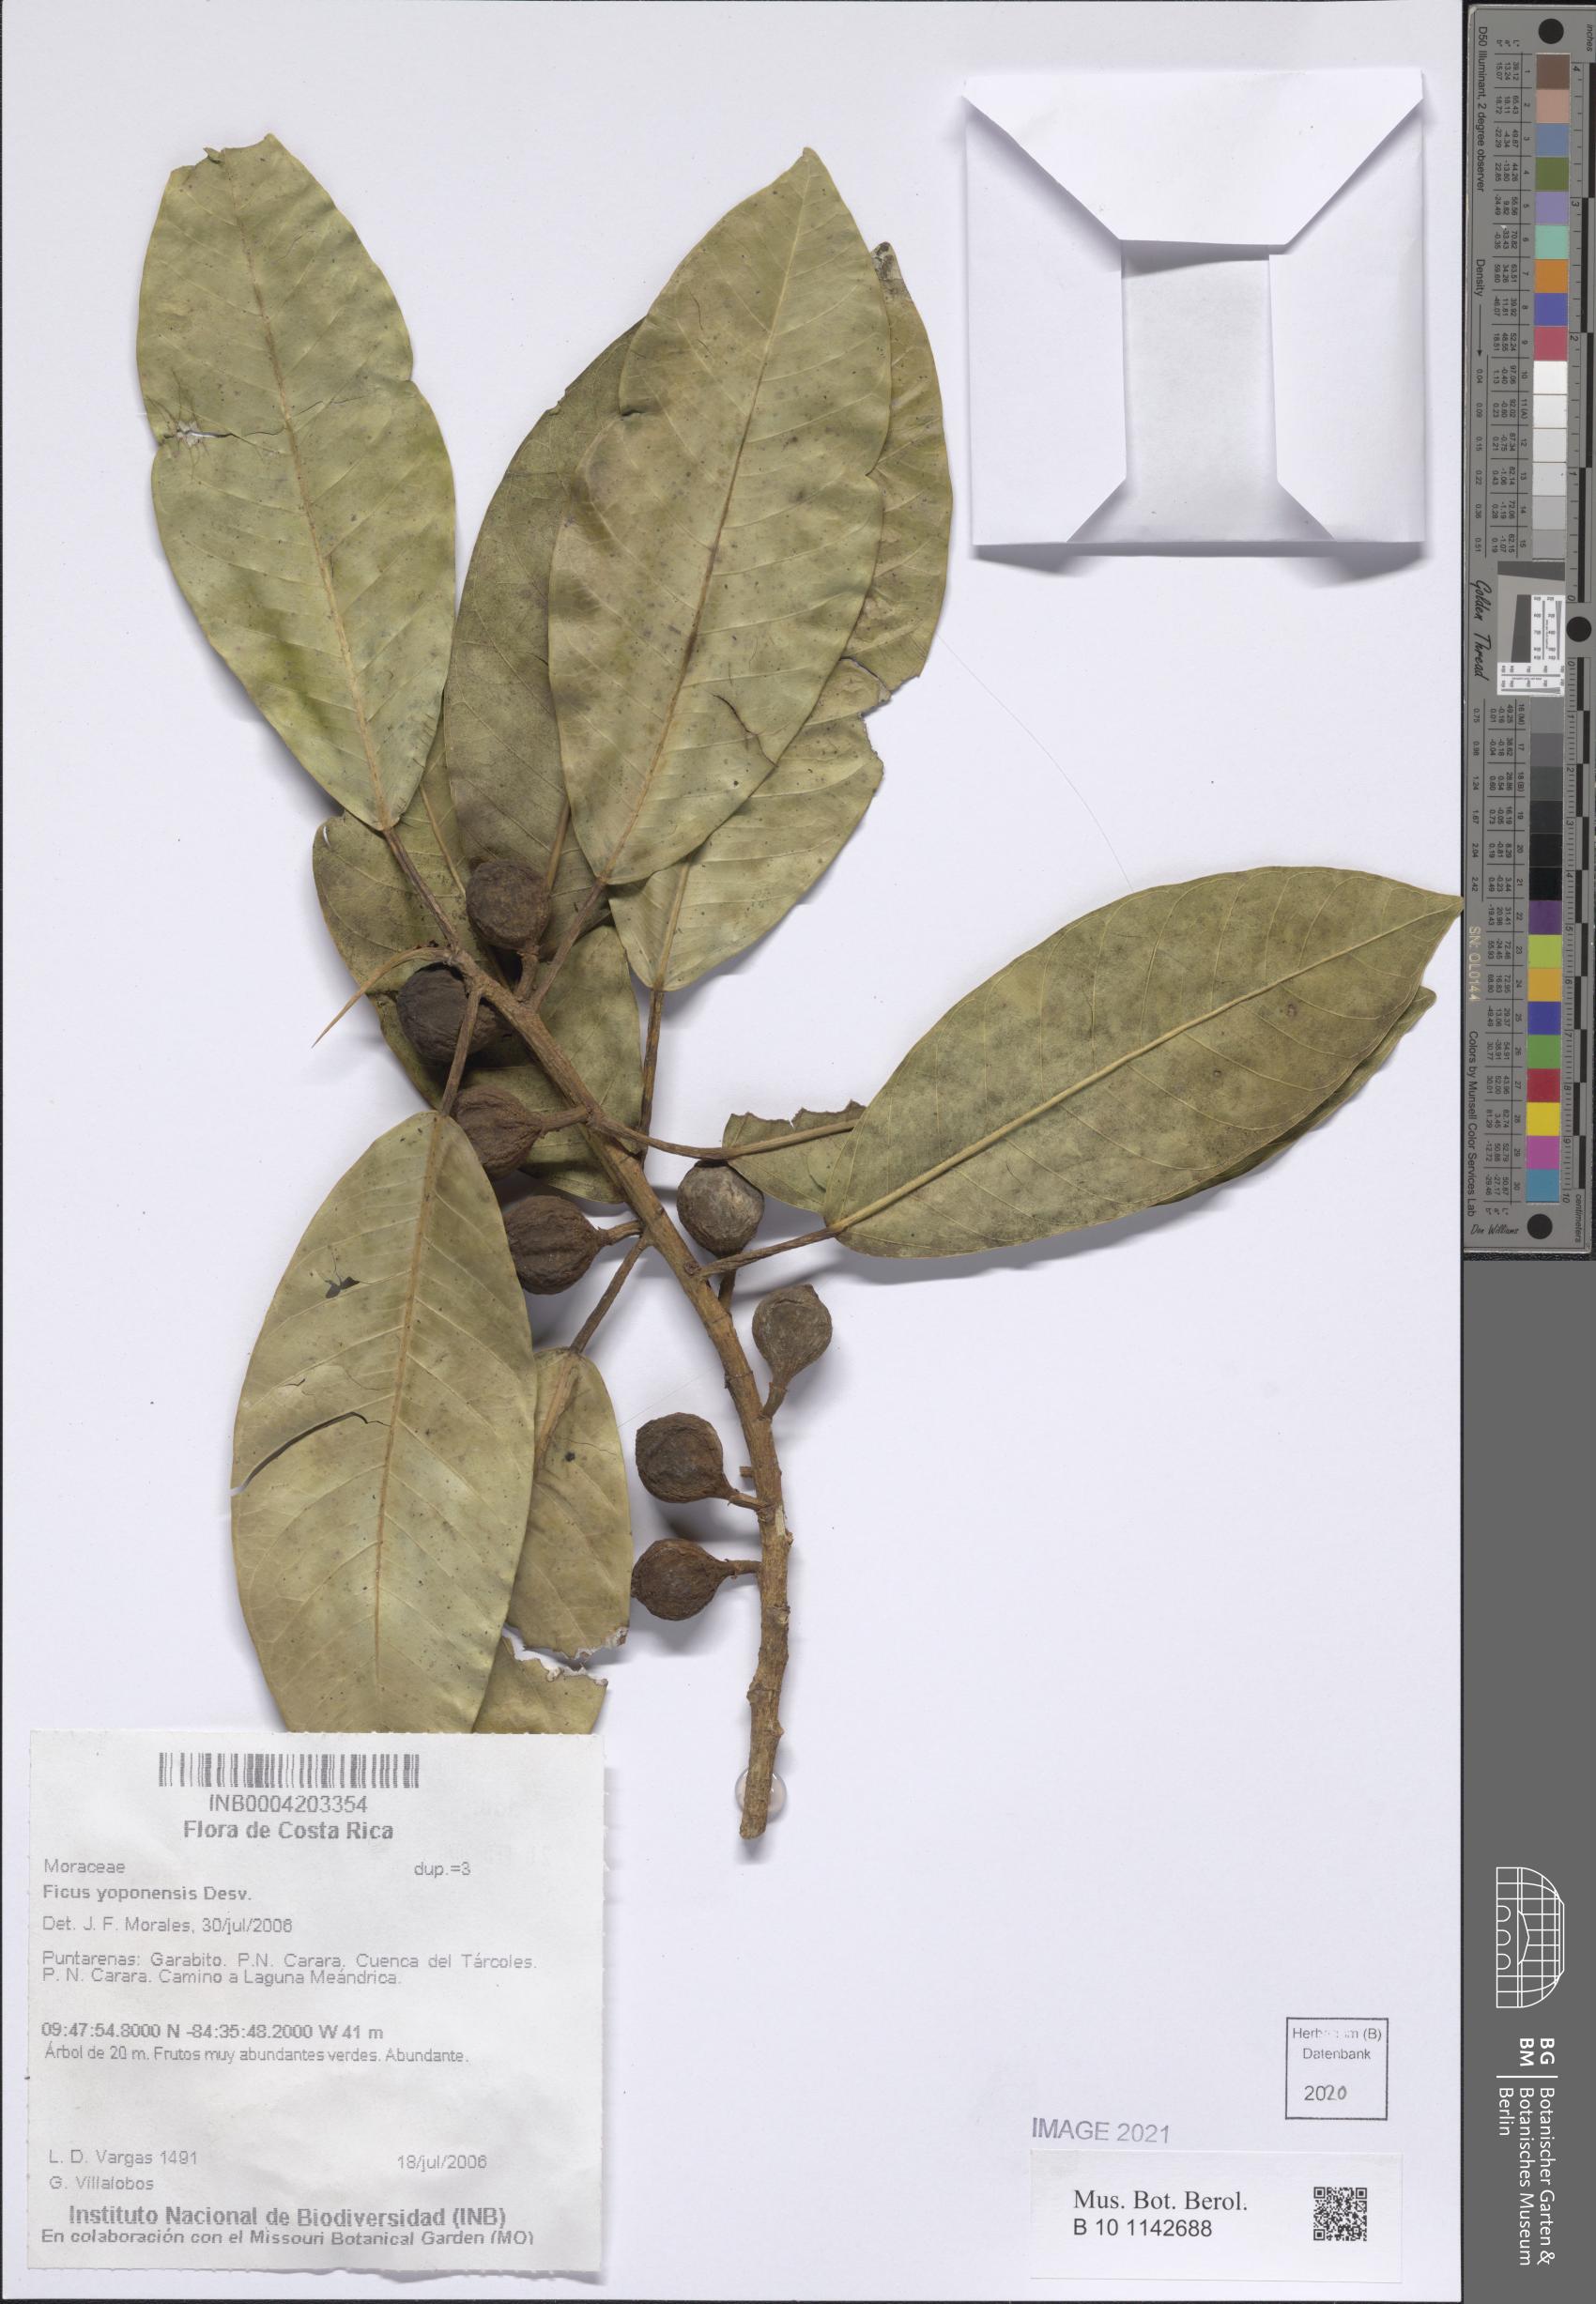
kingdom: Plantae
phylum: Tracheophyta
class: Magnoliopsida
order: Rosales
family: Moraceae
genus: Ficus
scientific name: Ficus yoponensis
